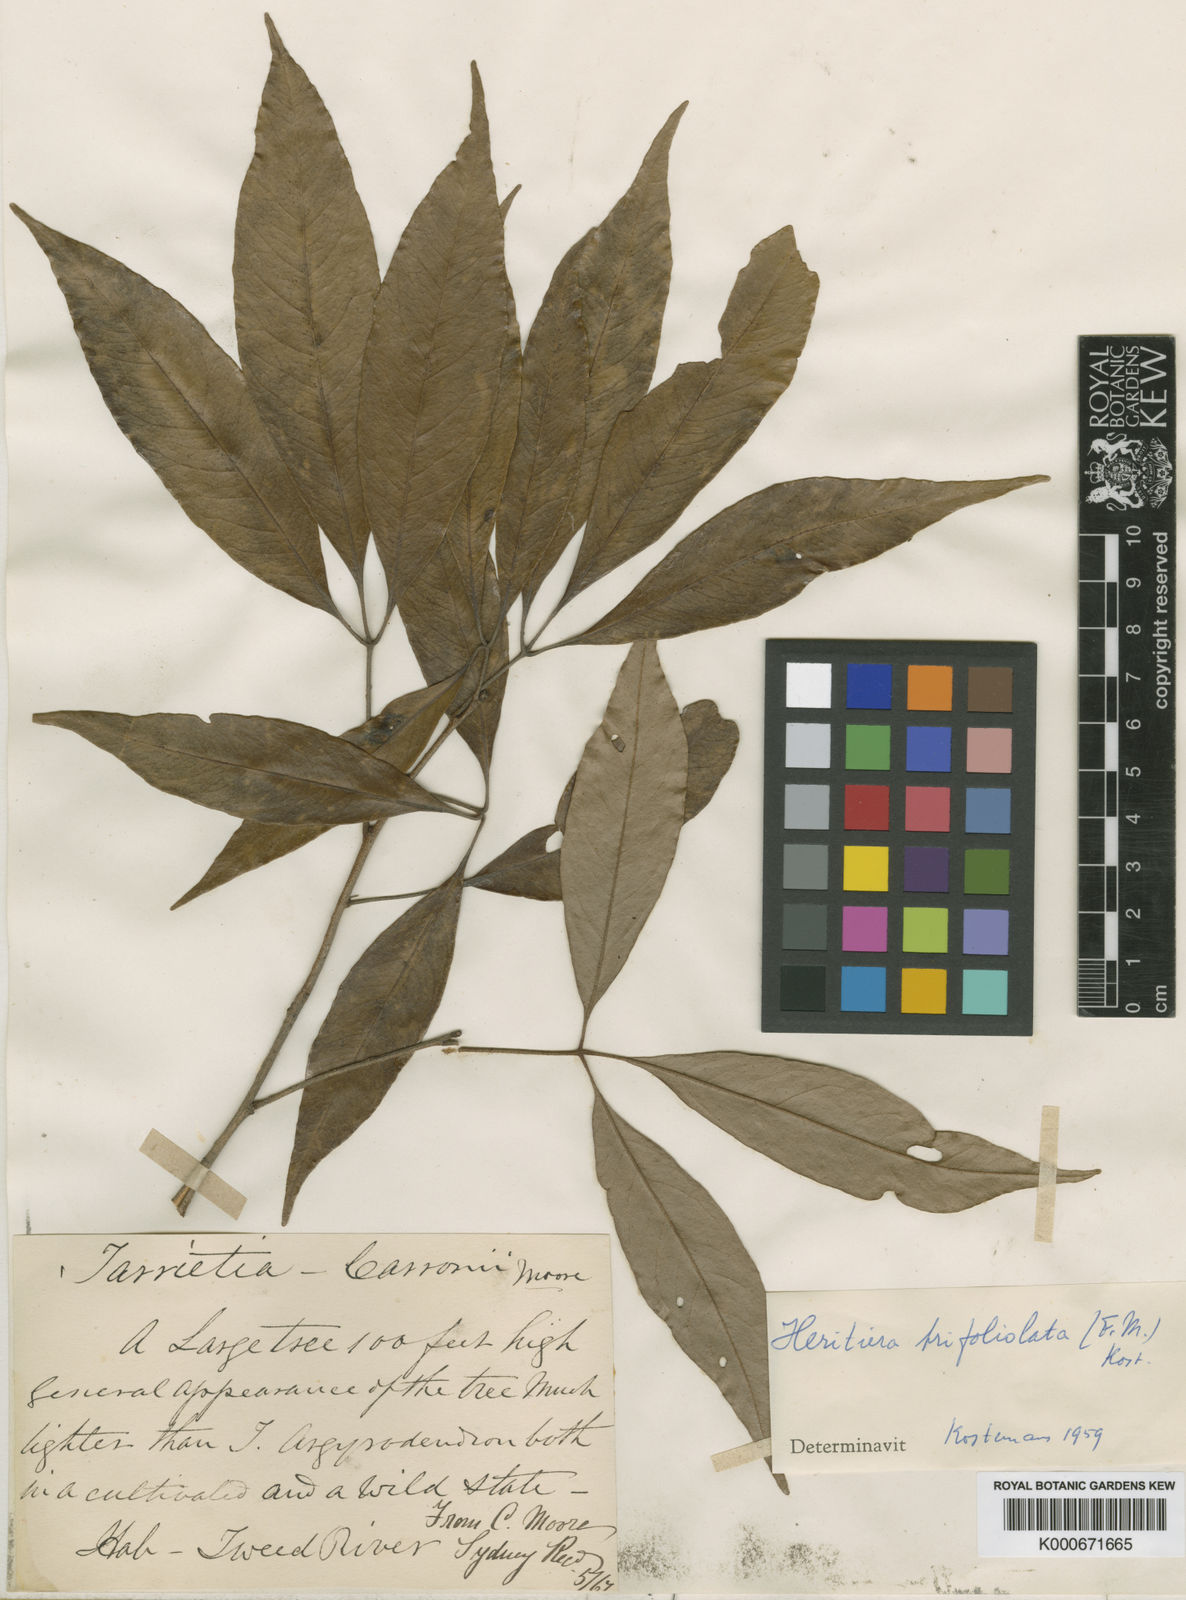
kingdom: Plantae
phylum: Tracheophyta
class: Magnoliopsida
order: Malvales
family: Malvaceae
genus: Argyrodendron
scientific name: Argyrodendron trifoliolatum
